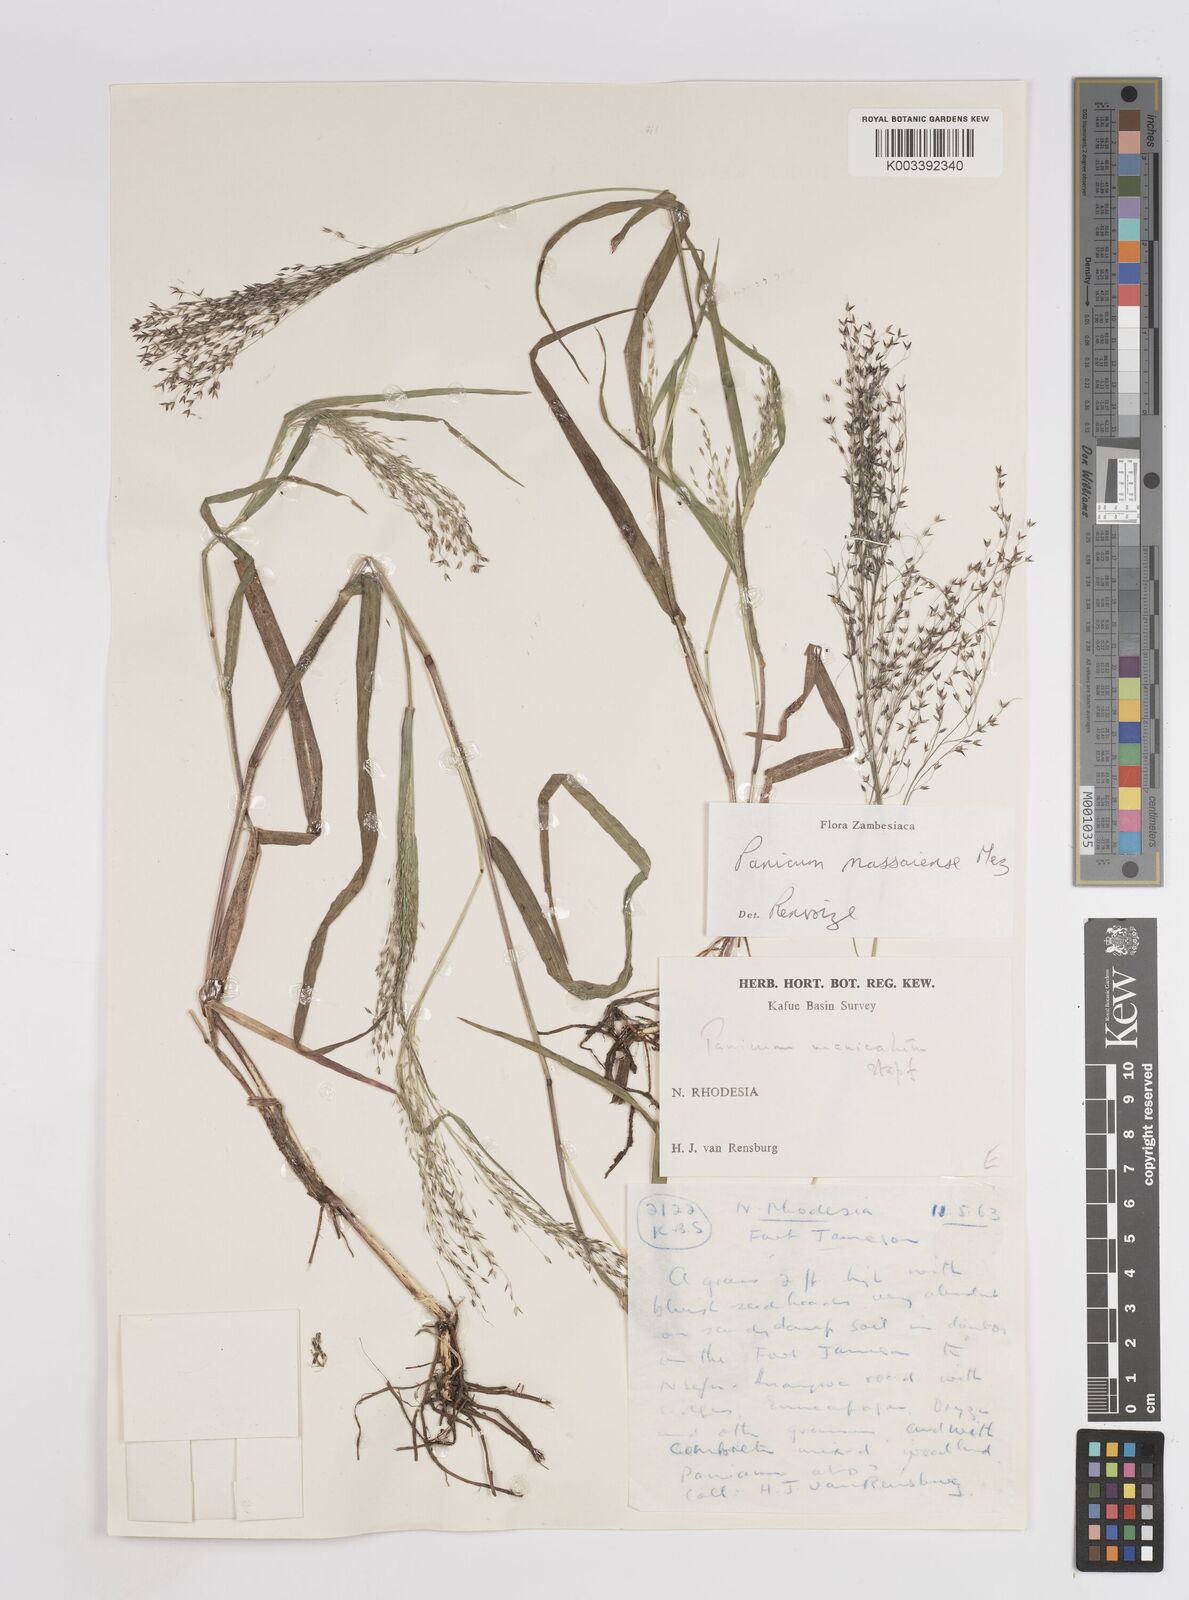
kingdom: Plantae
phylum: Tracheophyta
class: Liliopsida
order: Poales
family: Poaceae
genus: Panicum
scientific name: Panicum massaiense
